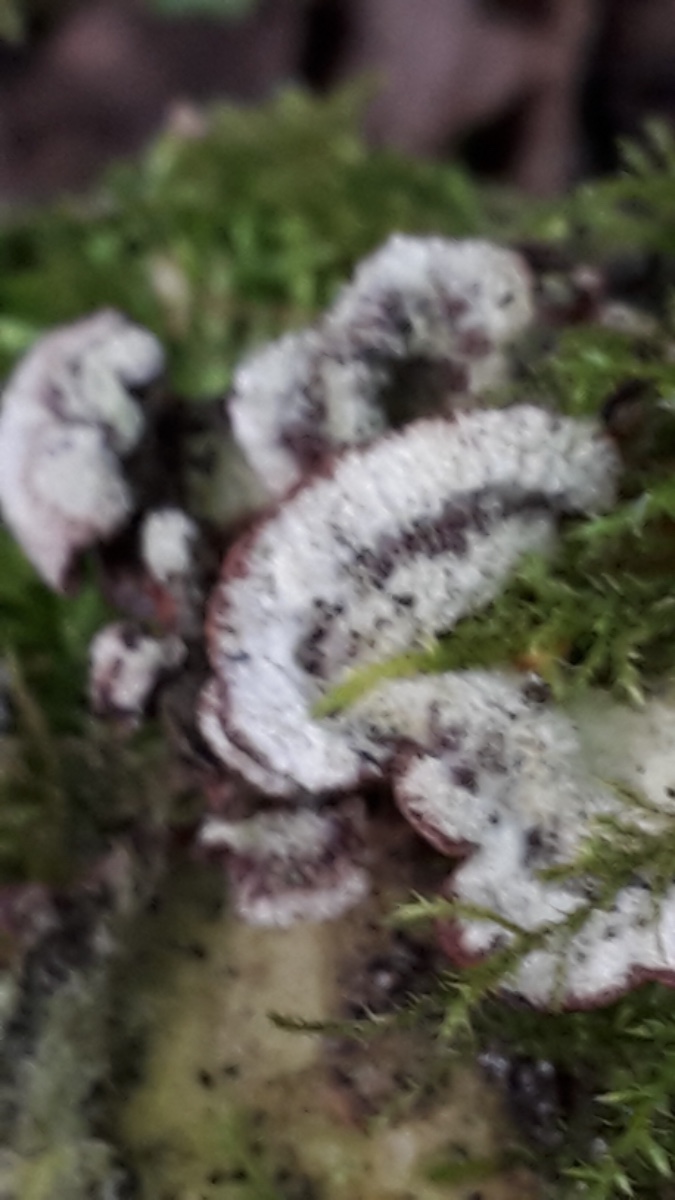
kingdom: Fungi
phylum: Basidiomycota
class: Agaricomycetes
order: Agaricales
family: Cyphellaceae
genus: Chondrostereum
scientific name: Chondrostereum purpureum
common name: purpurlædersvamp
